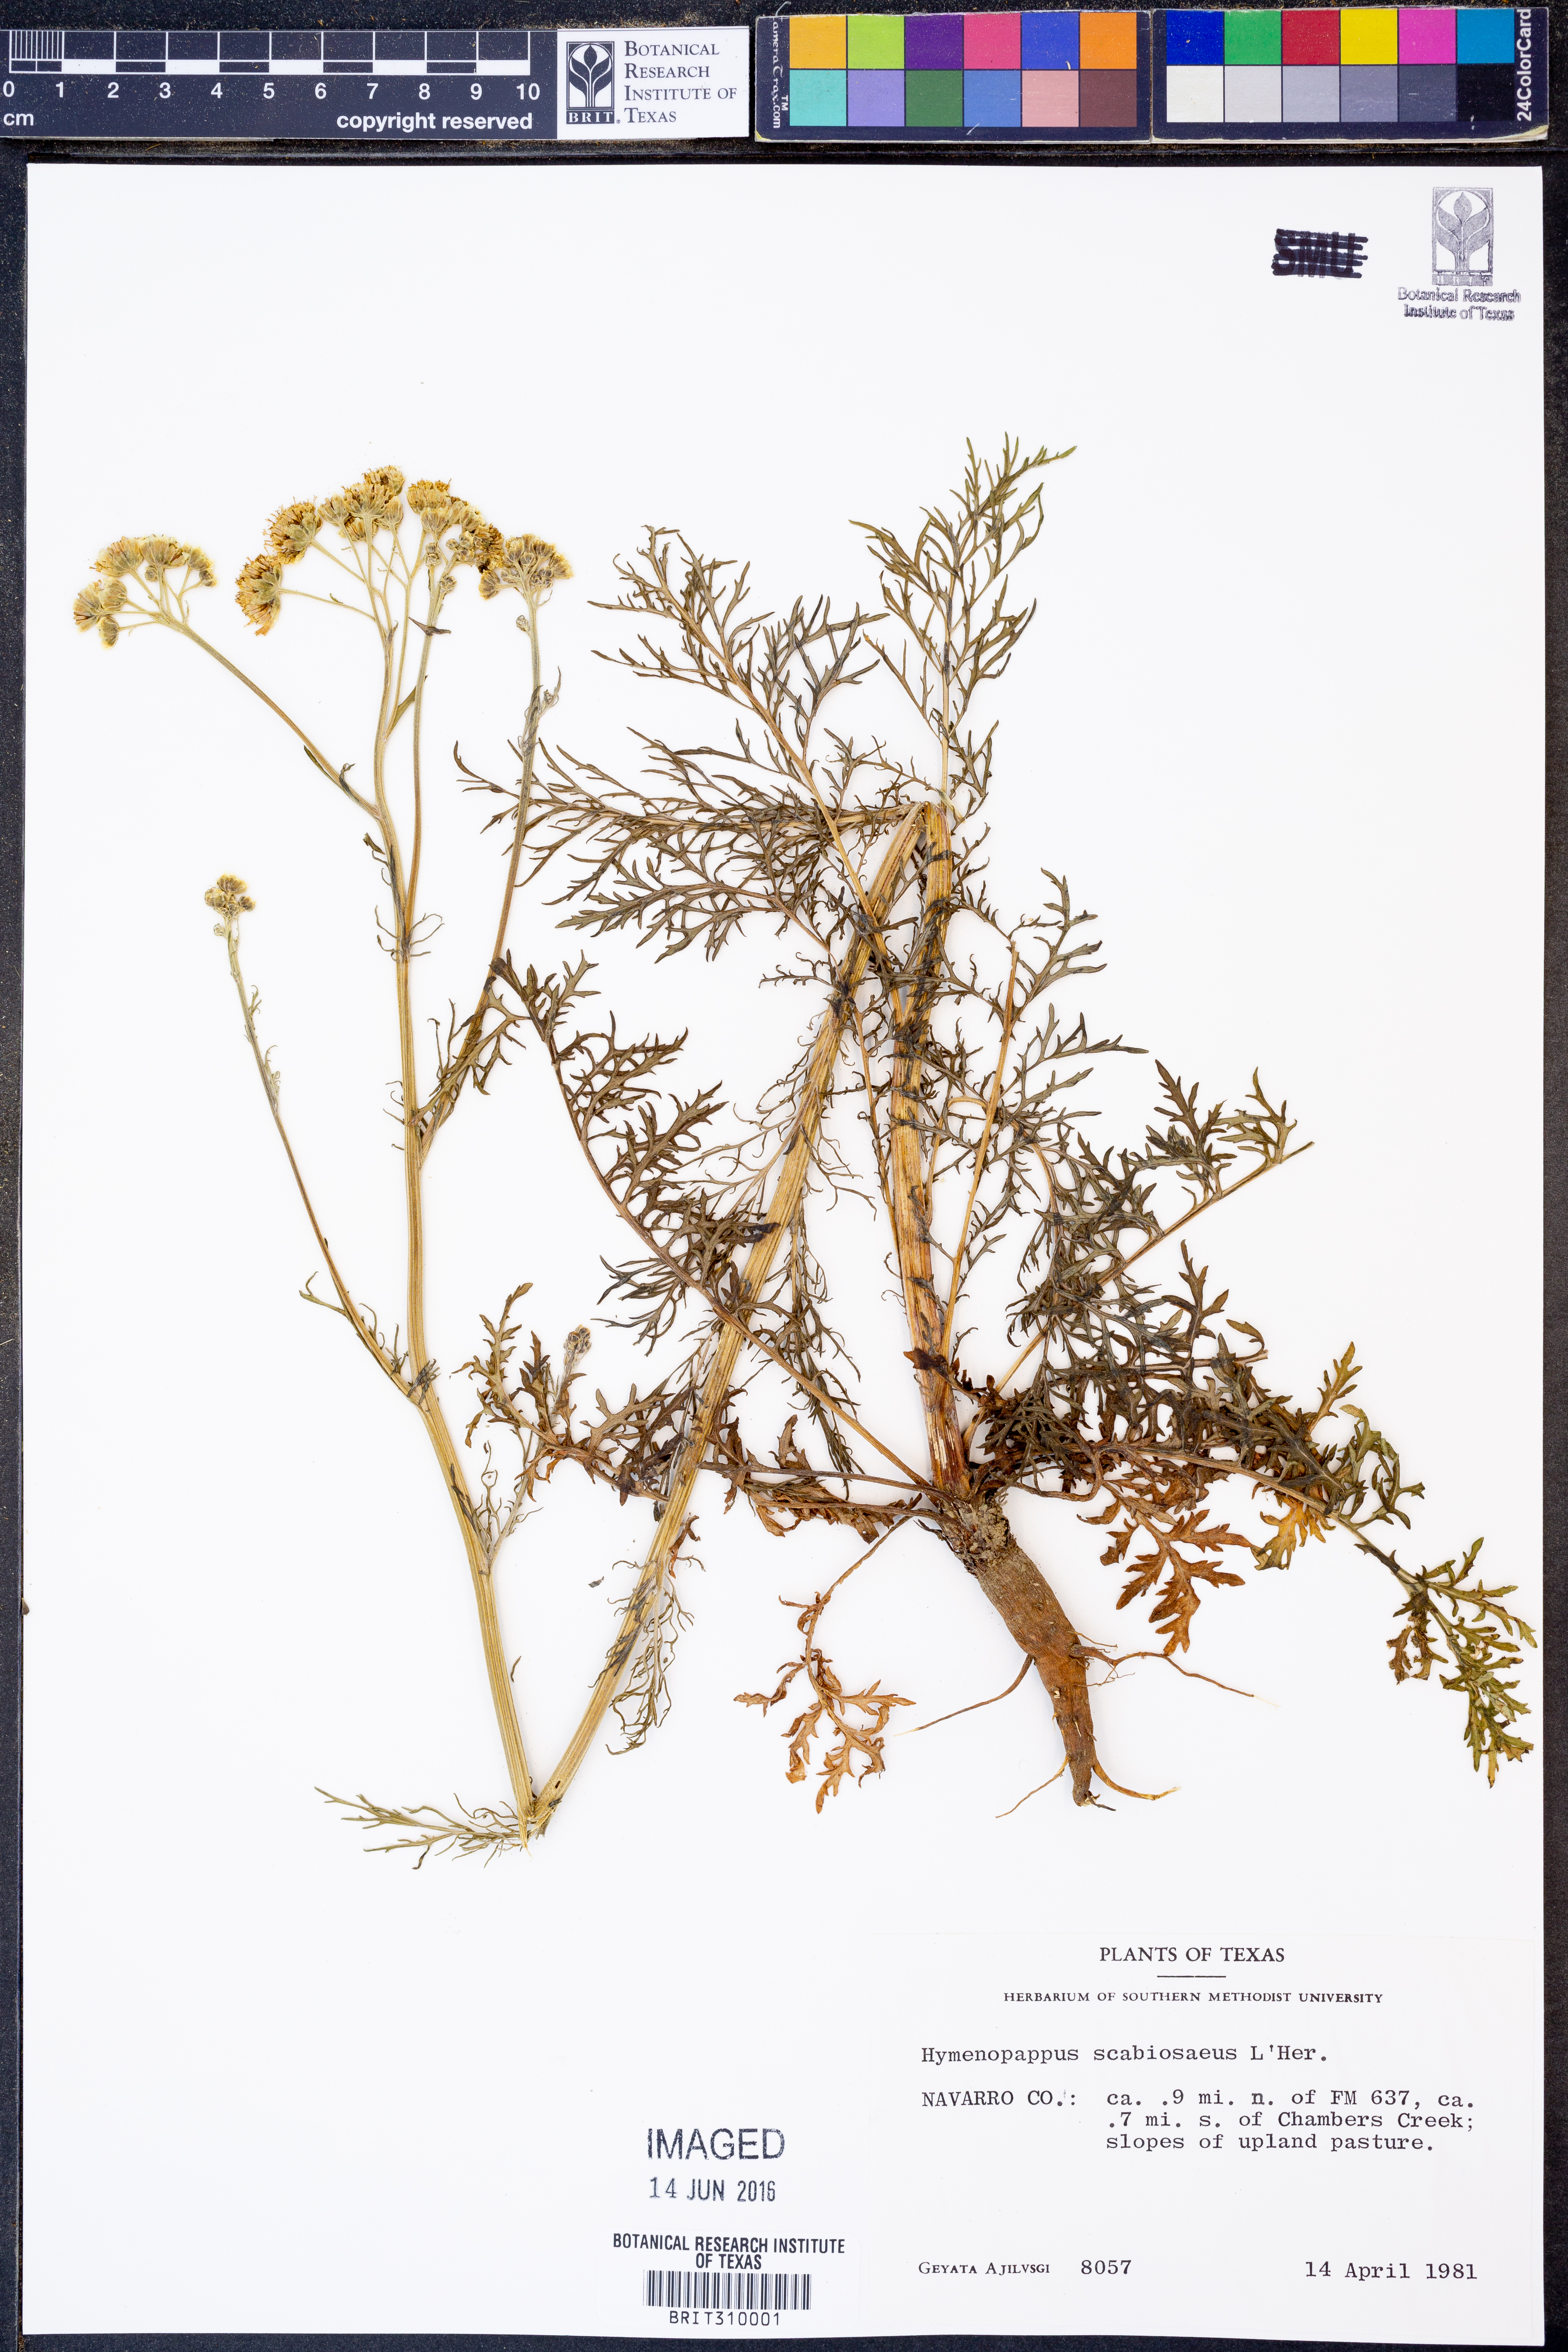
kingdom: Plantae
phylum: Tracheophyta
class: Magnoliopsida
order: Asterales
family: Asteraceae
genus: Hymenopappus
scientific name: Hymenopappus scabiosaeus
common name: Carolina woollywhite
